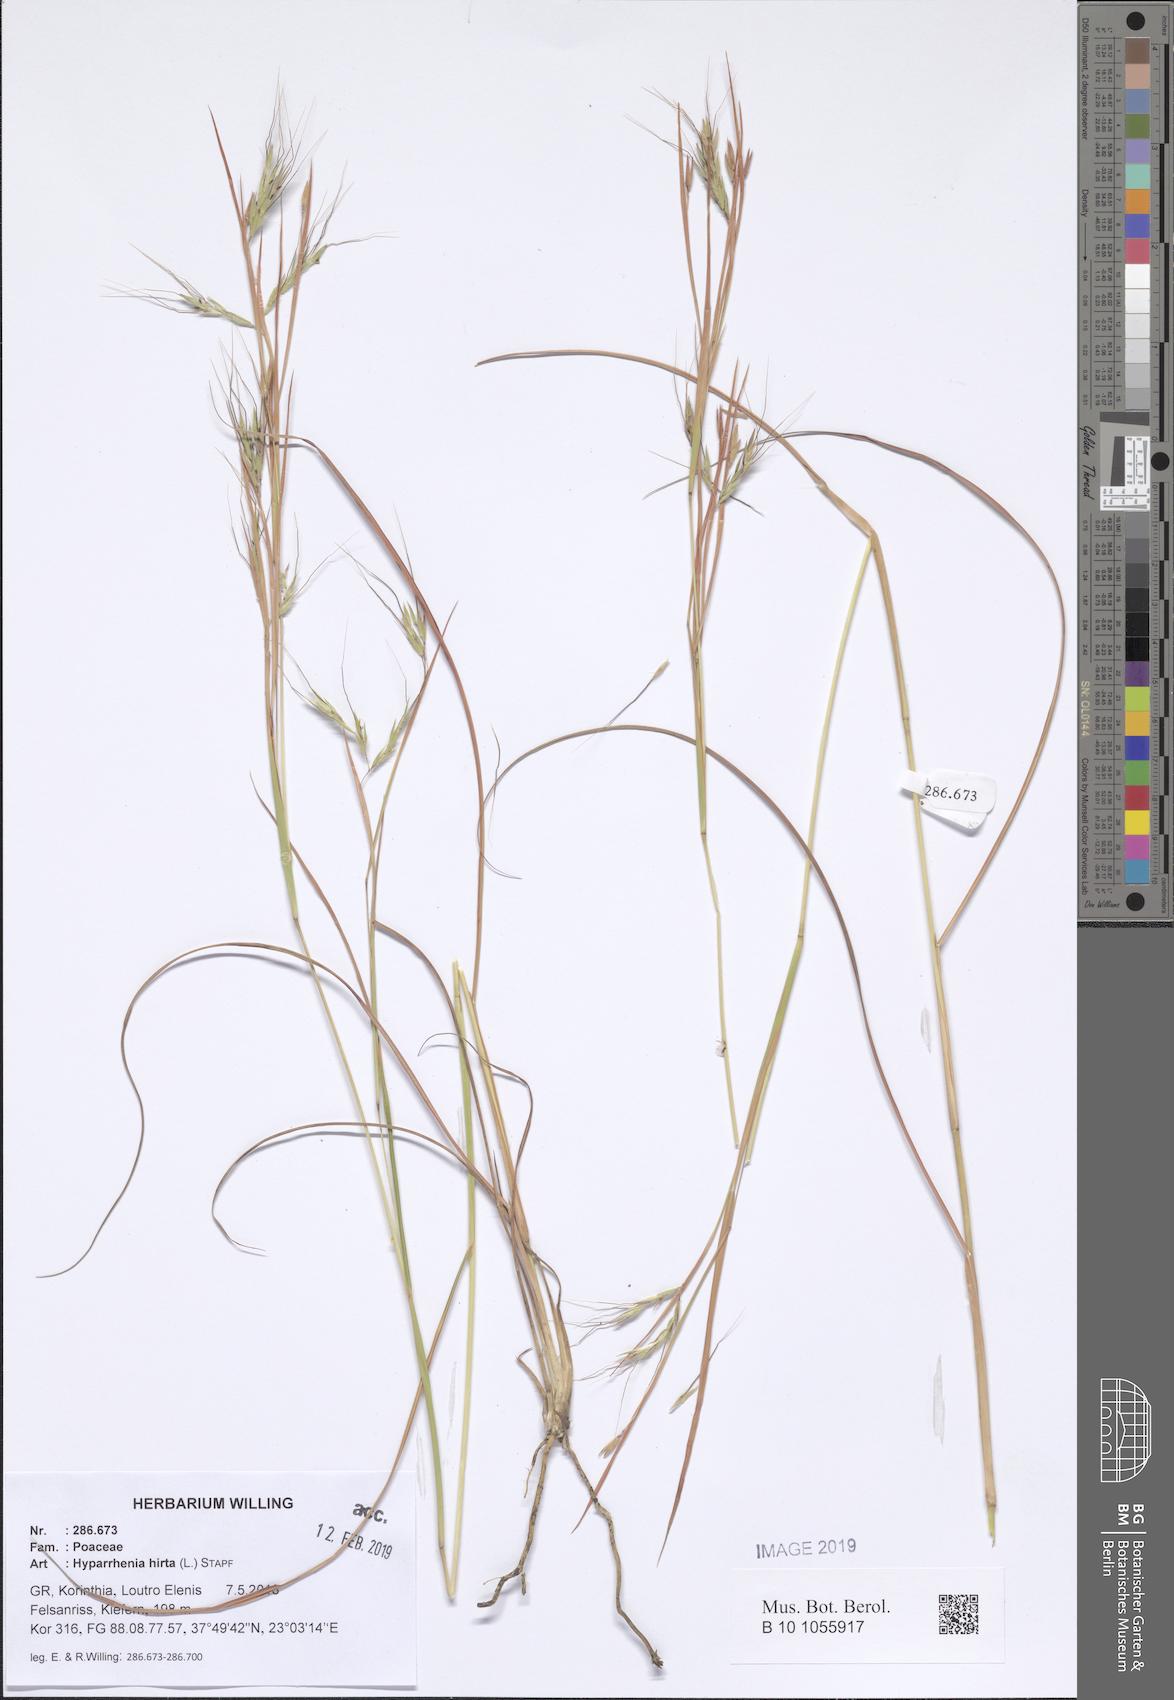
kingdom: Plantae
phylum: Tracheophyta
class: Liliopsida
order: Poales
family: Poaceae
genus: Hyparrhenia
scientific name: Hyparrhenia hirta
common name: Thatching grass
